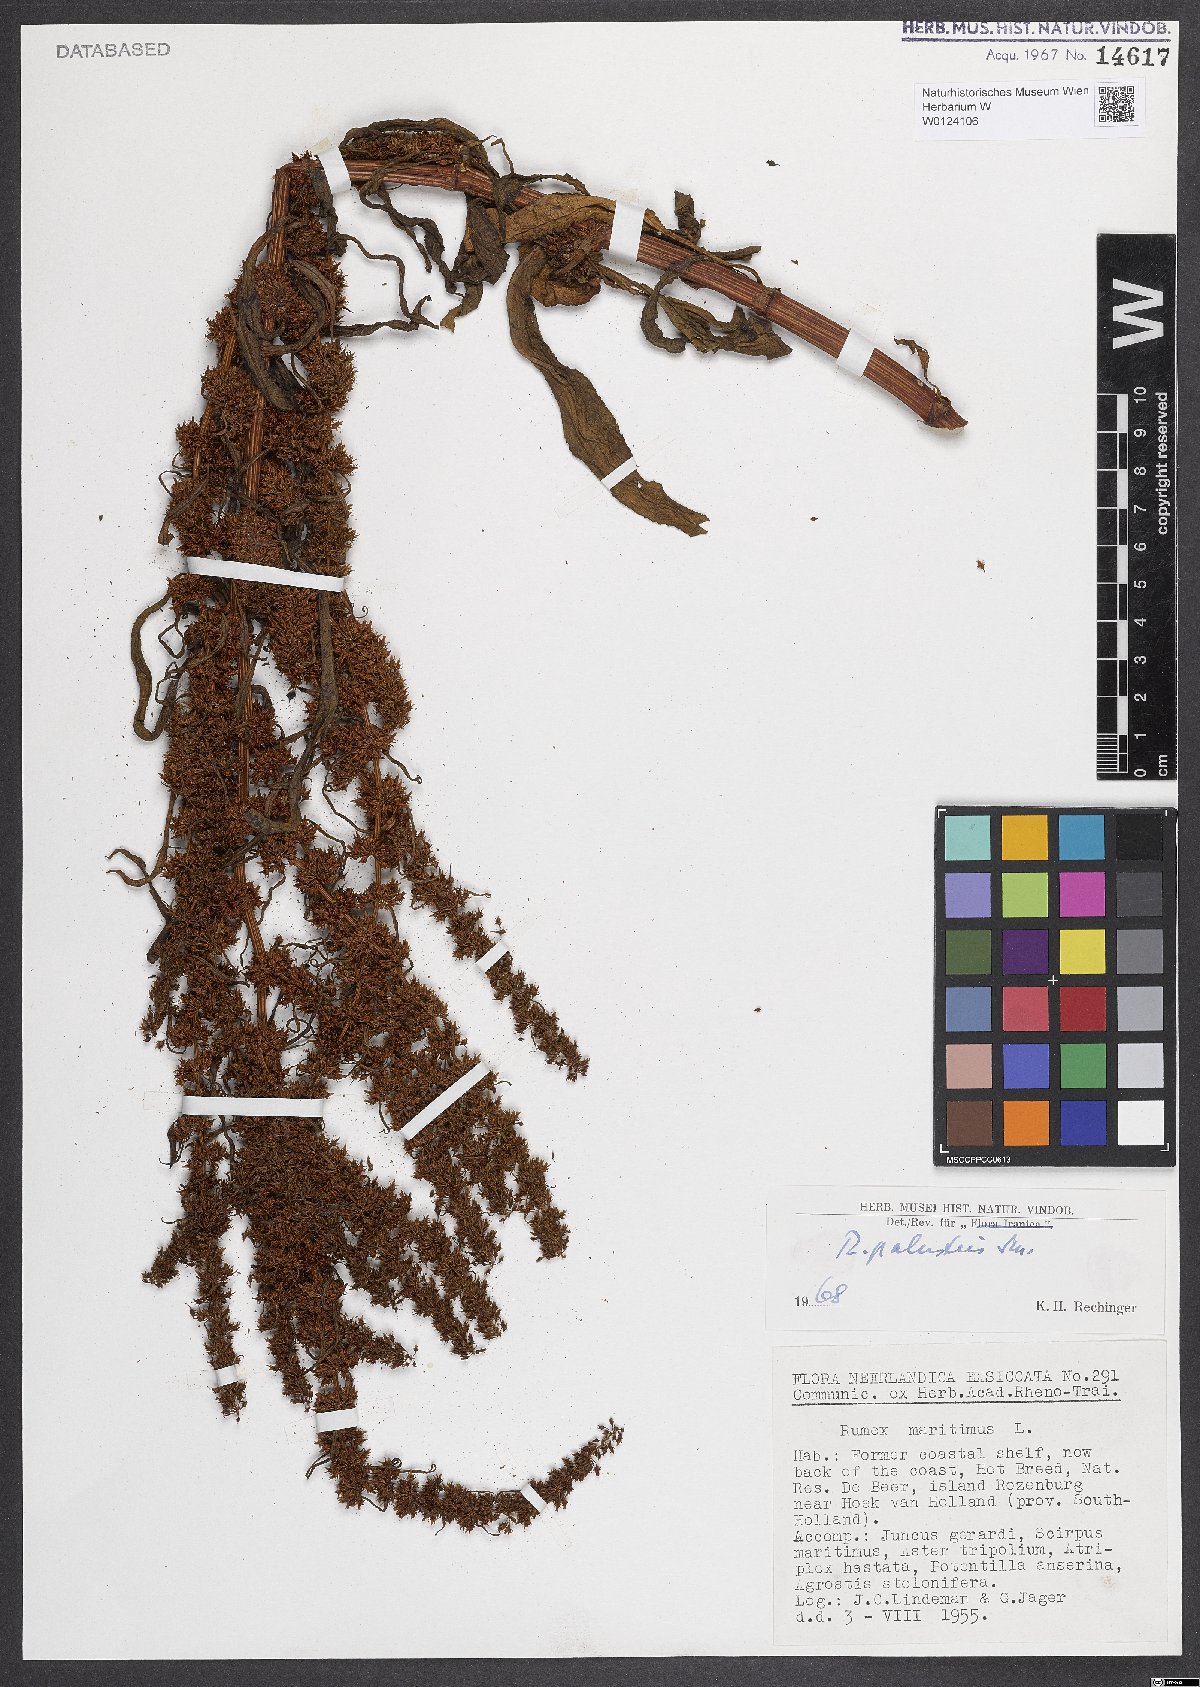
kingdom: Plantae
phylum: Tracheophyta
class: Magnoliopsida
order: Caryophyllales
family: Polygonaceae
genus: Rumex
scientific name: Rumex palustris
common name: Marsh dock
